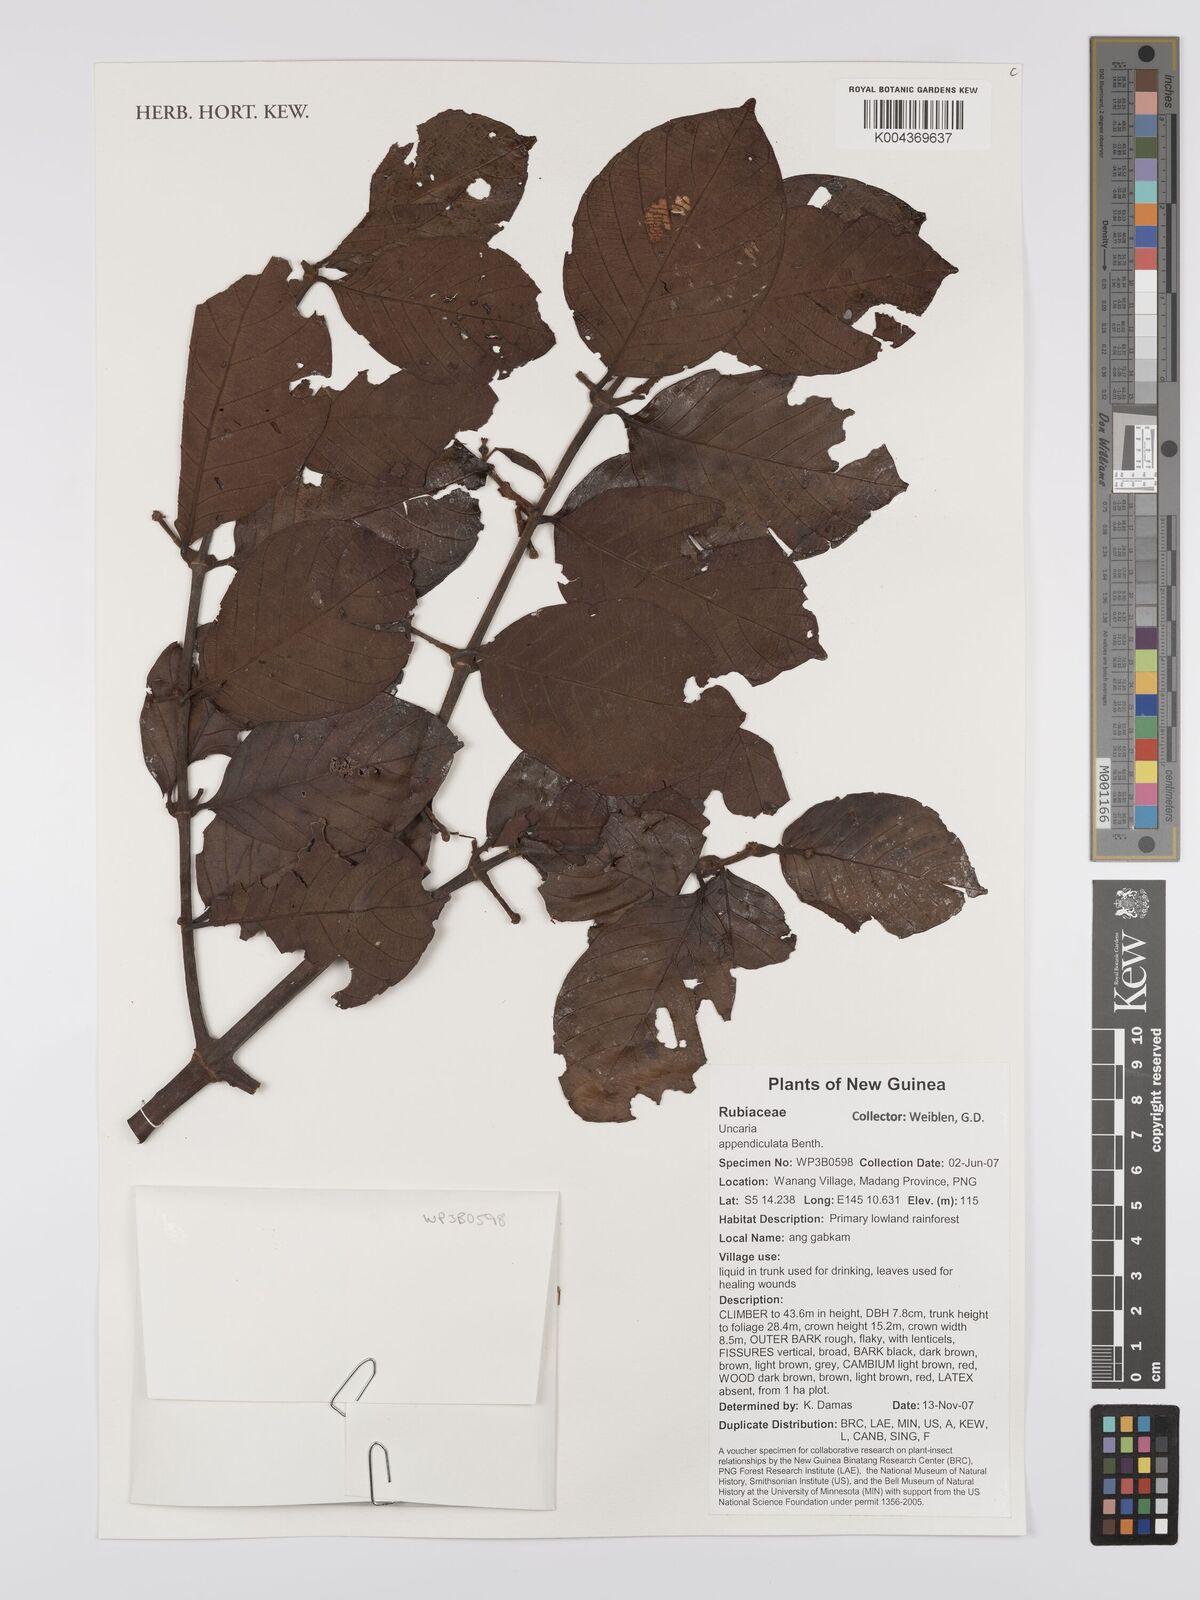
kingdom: Plantae
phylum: Tracheophyta
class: Magnoliopsida
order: Gentianales
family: Rubiaceae
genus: Uncaria
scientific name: Uncaria lanosa
